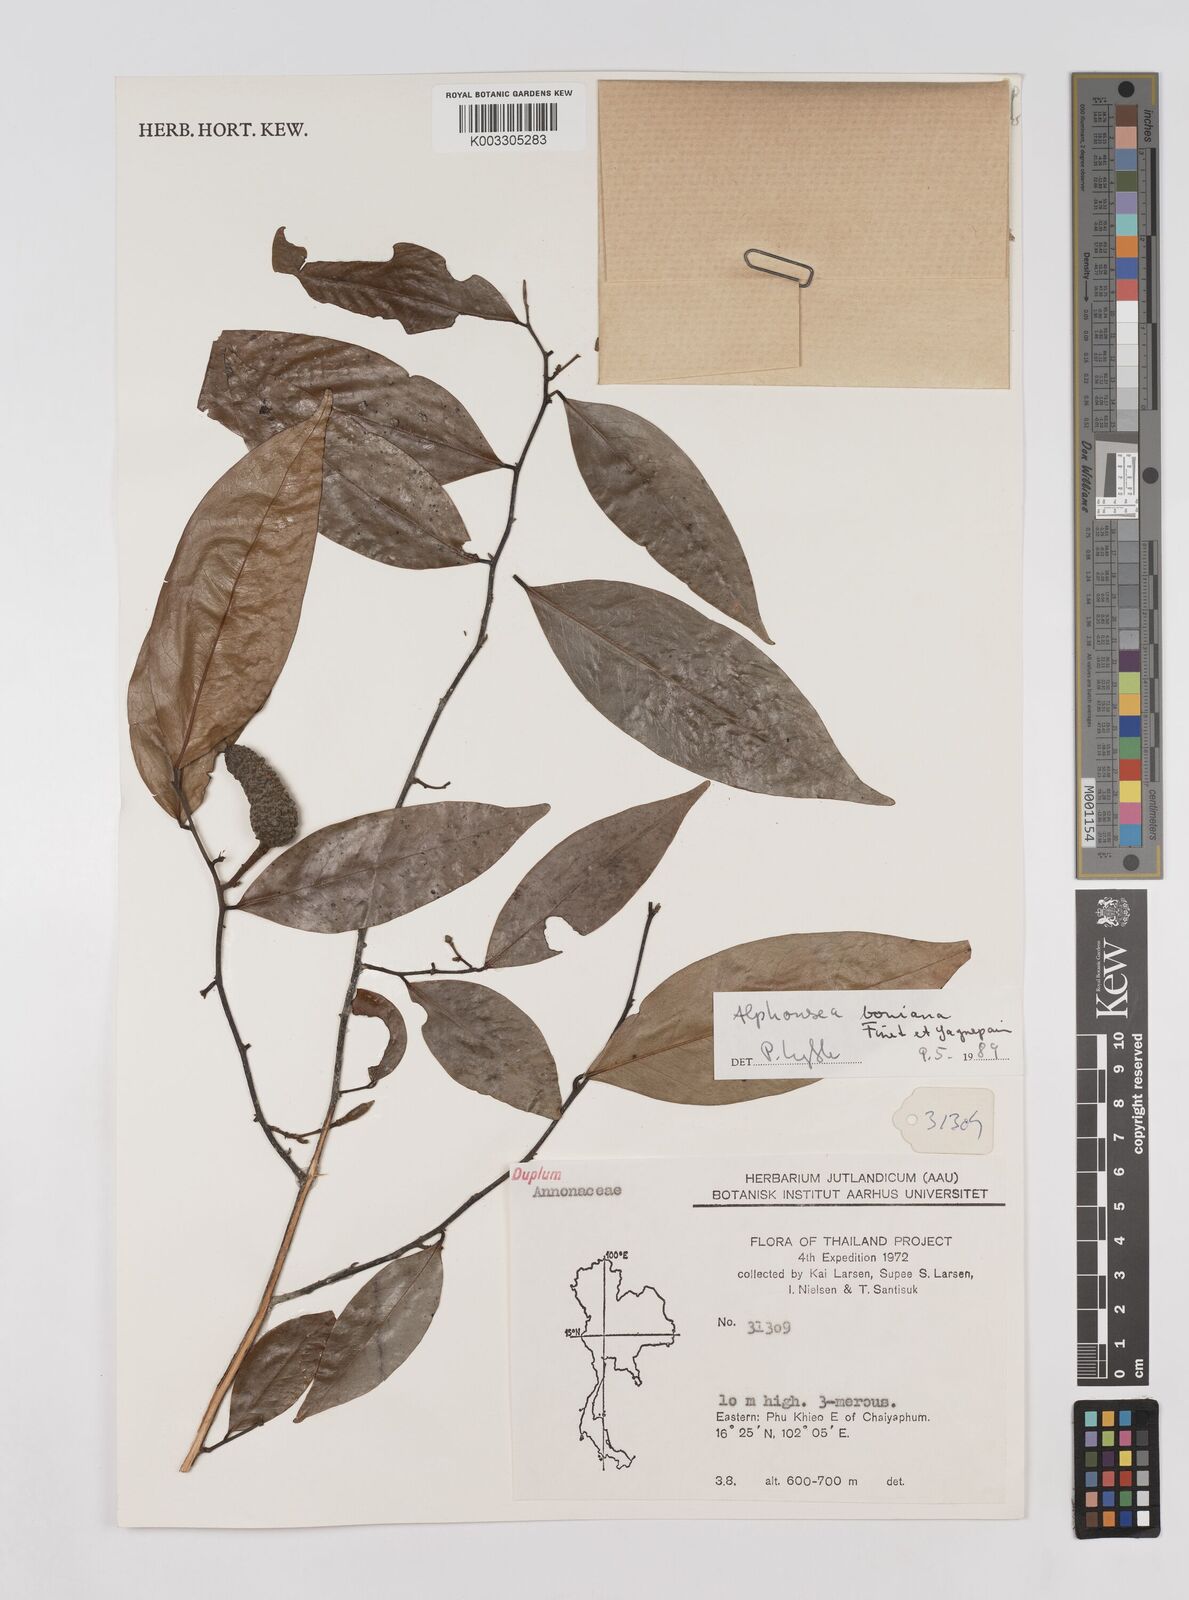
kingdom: Plantae
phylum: Tracheophyta
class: Magnoliopsida
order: Magnoliales
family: Annonaceae
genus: Alphonsea
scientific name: Alphonsea boniana
